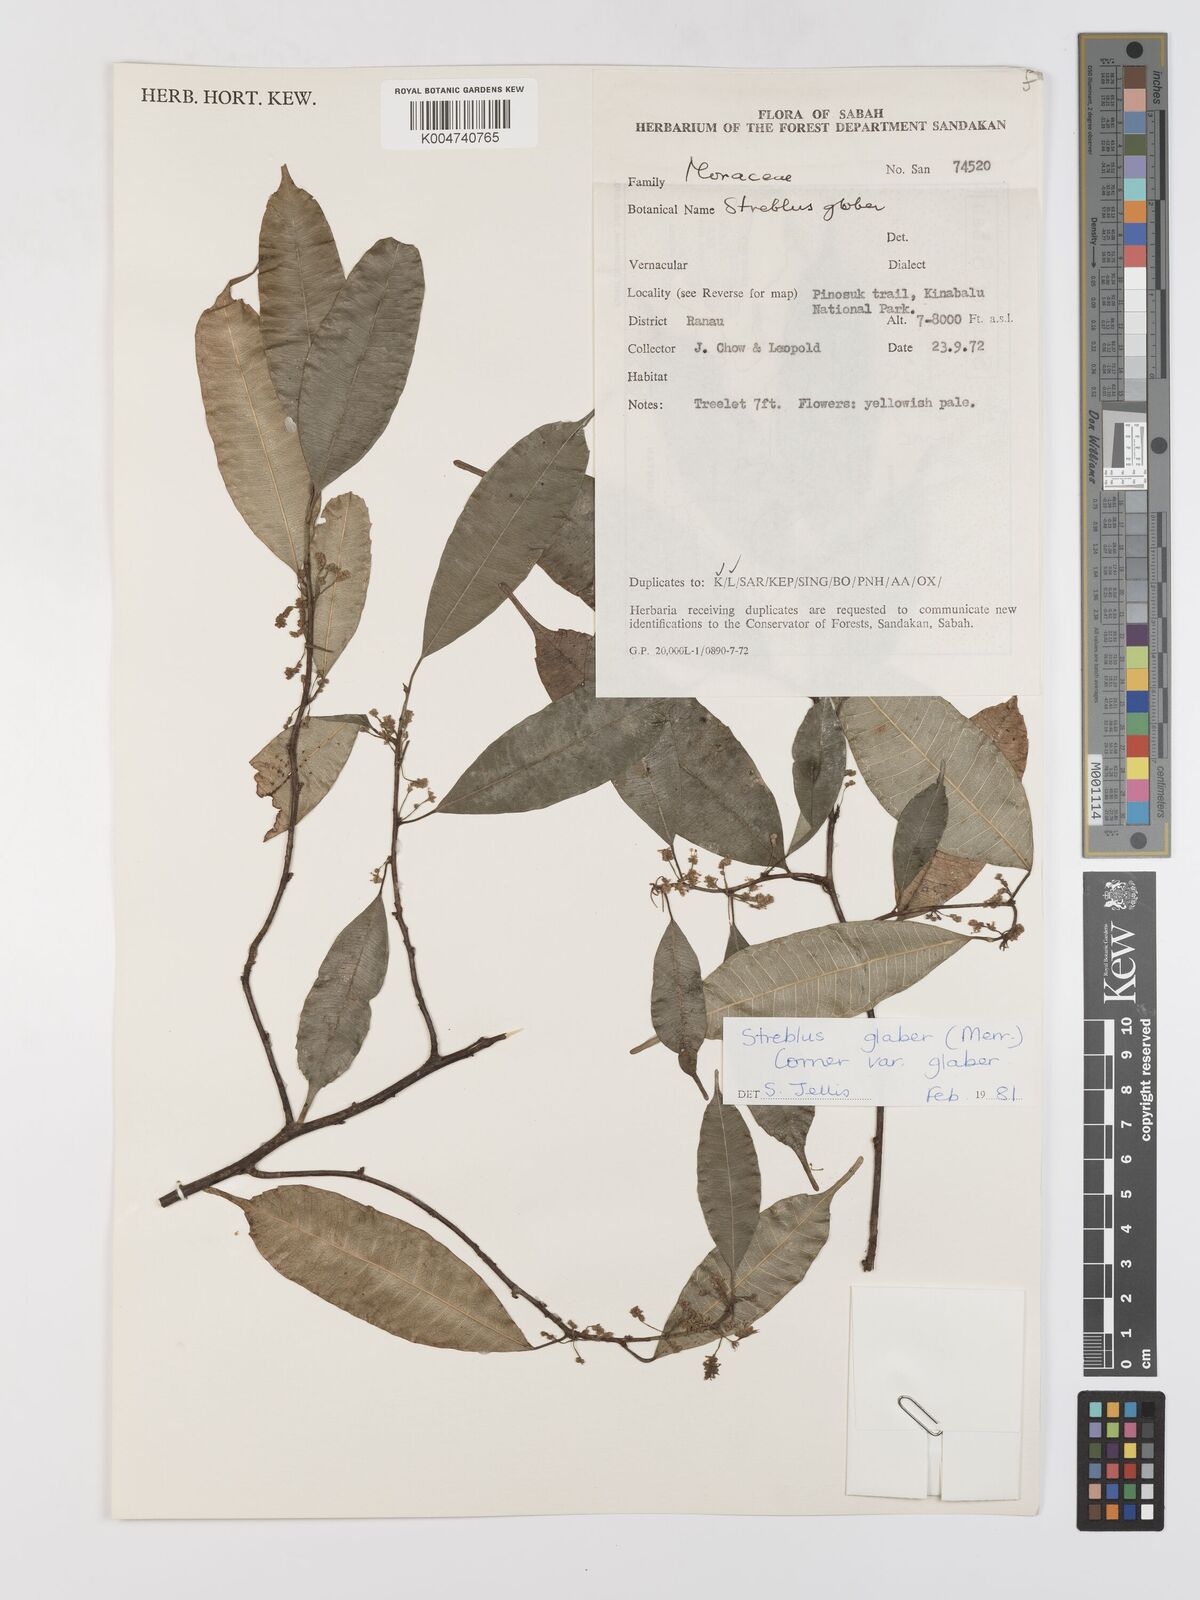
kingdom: Plantae
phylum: Tracheophyta
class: Magnoliopsida
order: Rosales
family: Moraceae
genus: Paratrophis
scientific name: Paratrophis glabra
